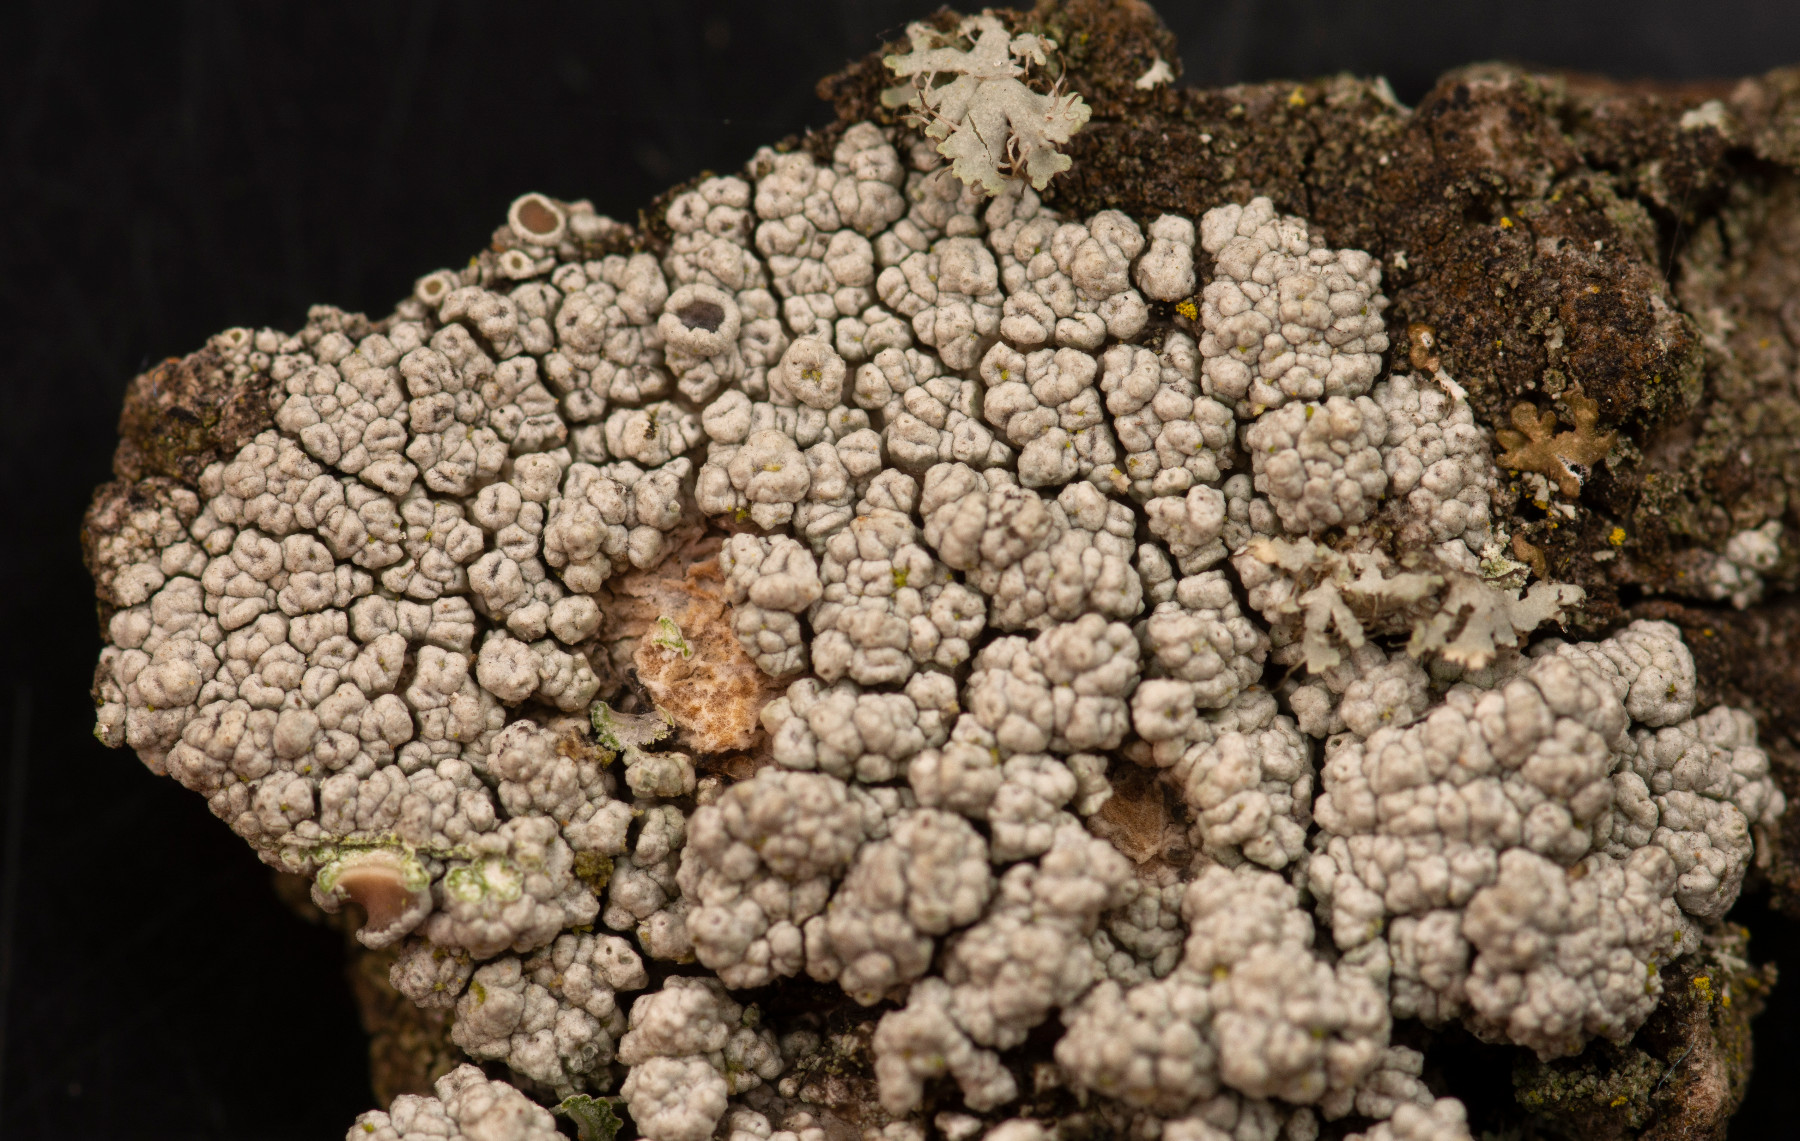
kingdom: Fungi
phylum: Ascomycota
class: Lecanoromycetes
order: Lecanorales
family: Lecanoraceae
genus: Lecanora
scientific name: Lecanora sinuosa
